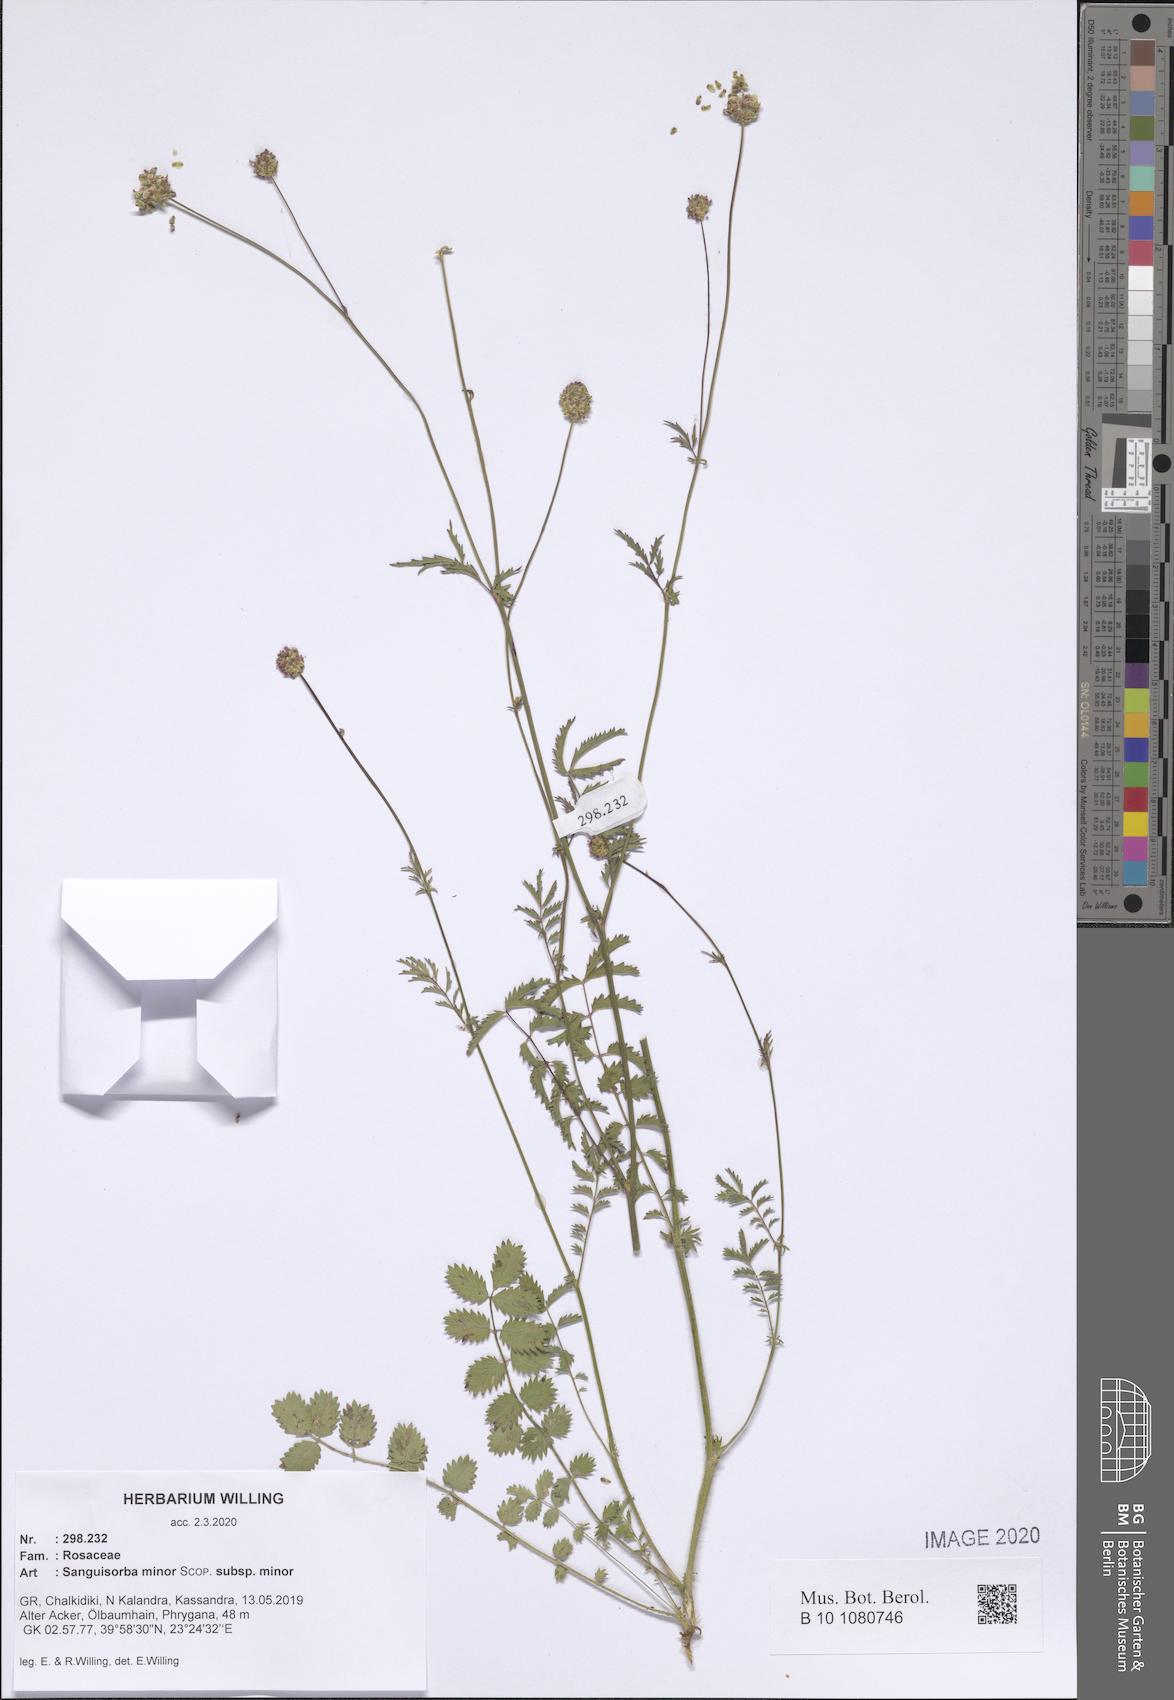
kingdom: Plantae
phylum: Tracheophyta
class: Magnoliopsida
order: Rosales
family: Rosaceae
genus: Poterium
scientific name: Poterium sanguisorba
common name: Salad burnet
